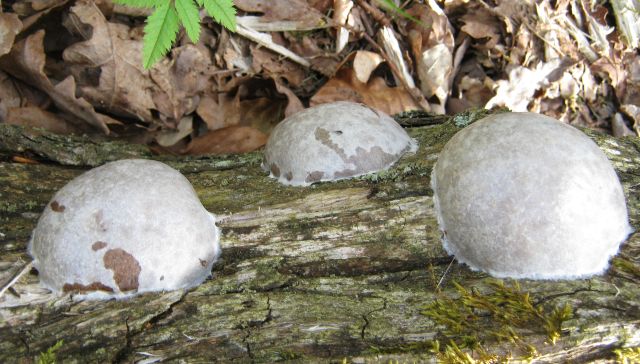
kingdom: Protozoa
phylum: Mycetozoa
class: Myxomycetes
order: Cribrariales
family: Tubiferaceae
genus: Reticularia
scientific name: Reticularia lycoperdon
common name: skinnende støvpude
